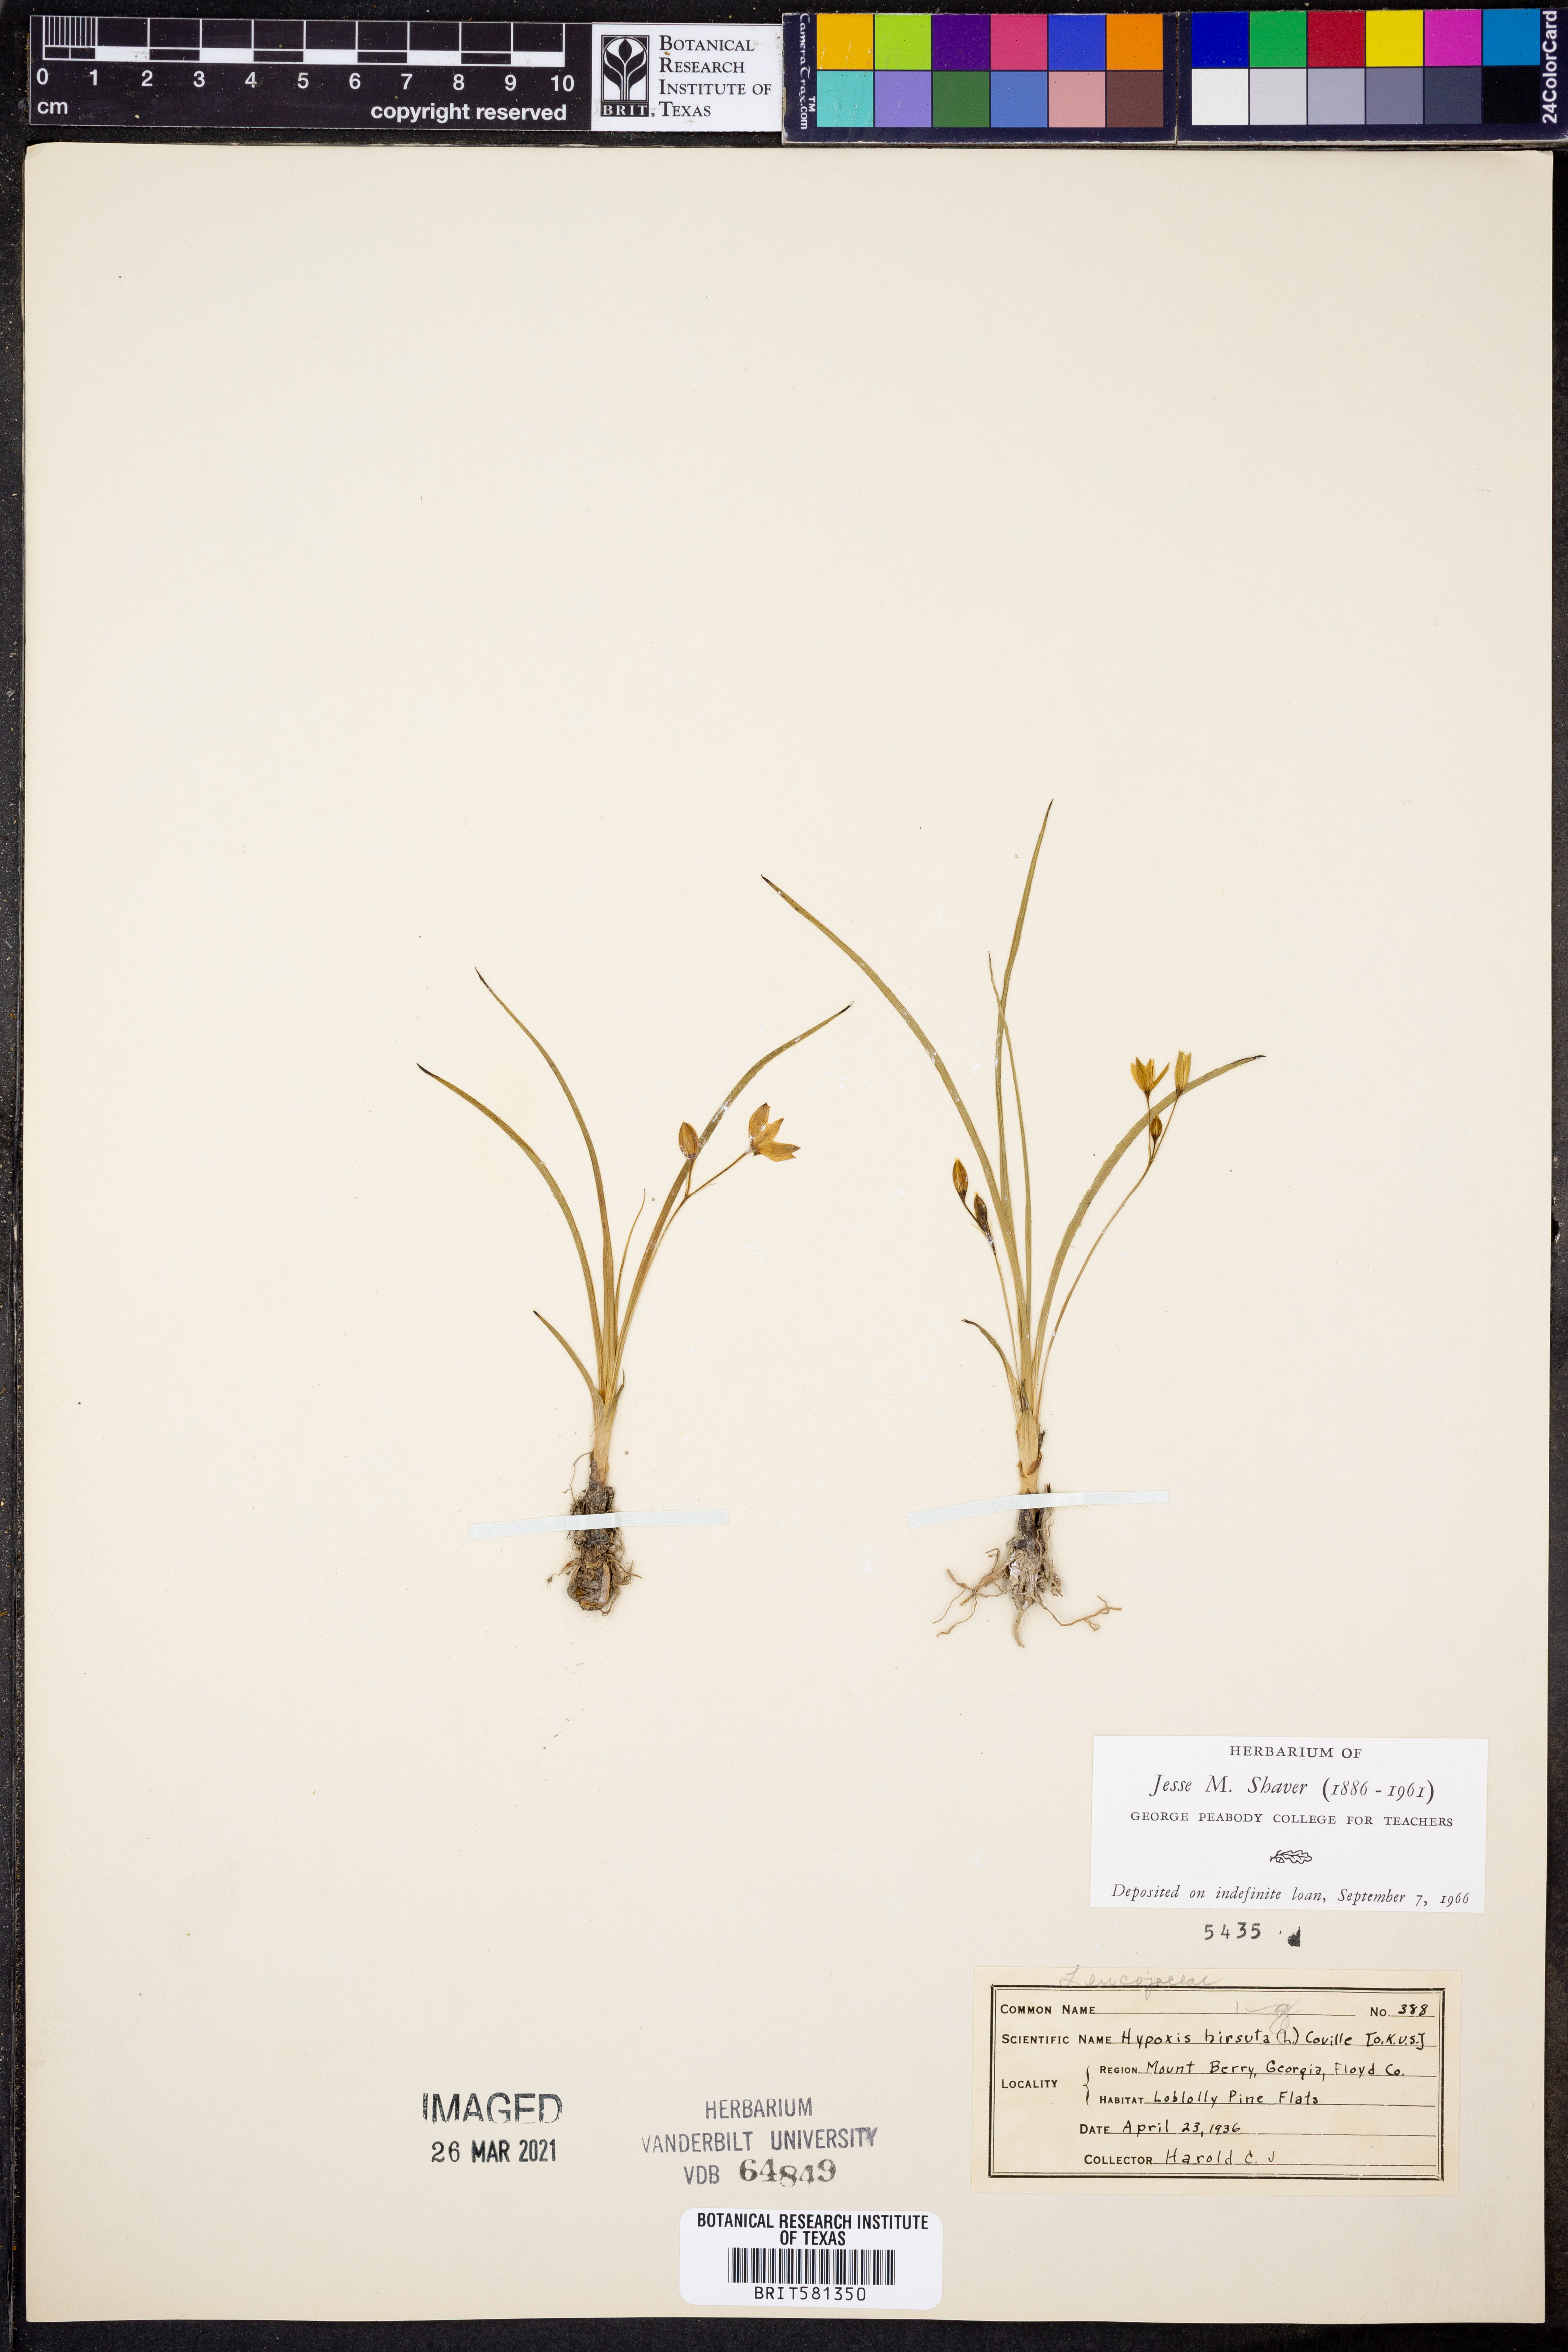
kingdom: Plantae
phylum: Tracheophyta
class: Liliopsida
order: Asparagales
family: Hypoxidaceae
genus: Hypoxis
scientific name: Hypoxis hirsuta
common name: Common goldstar
